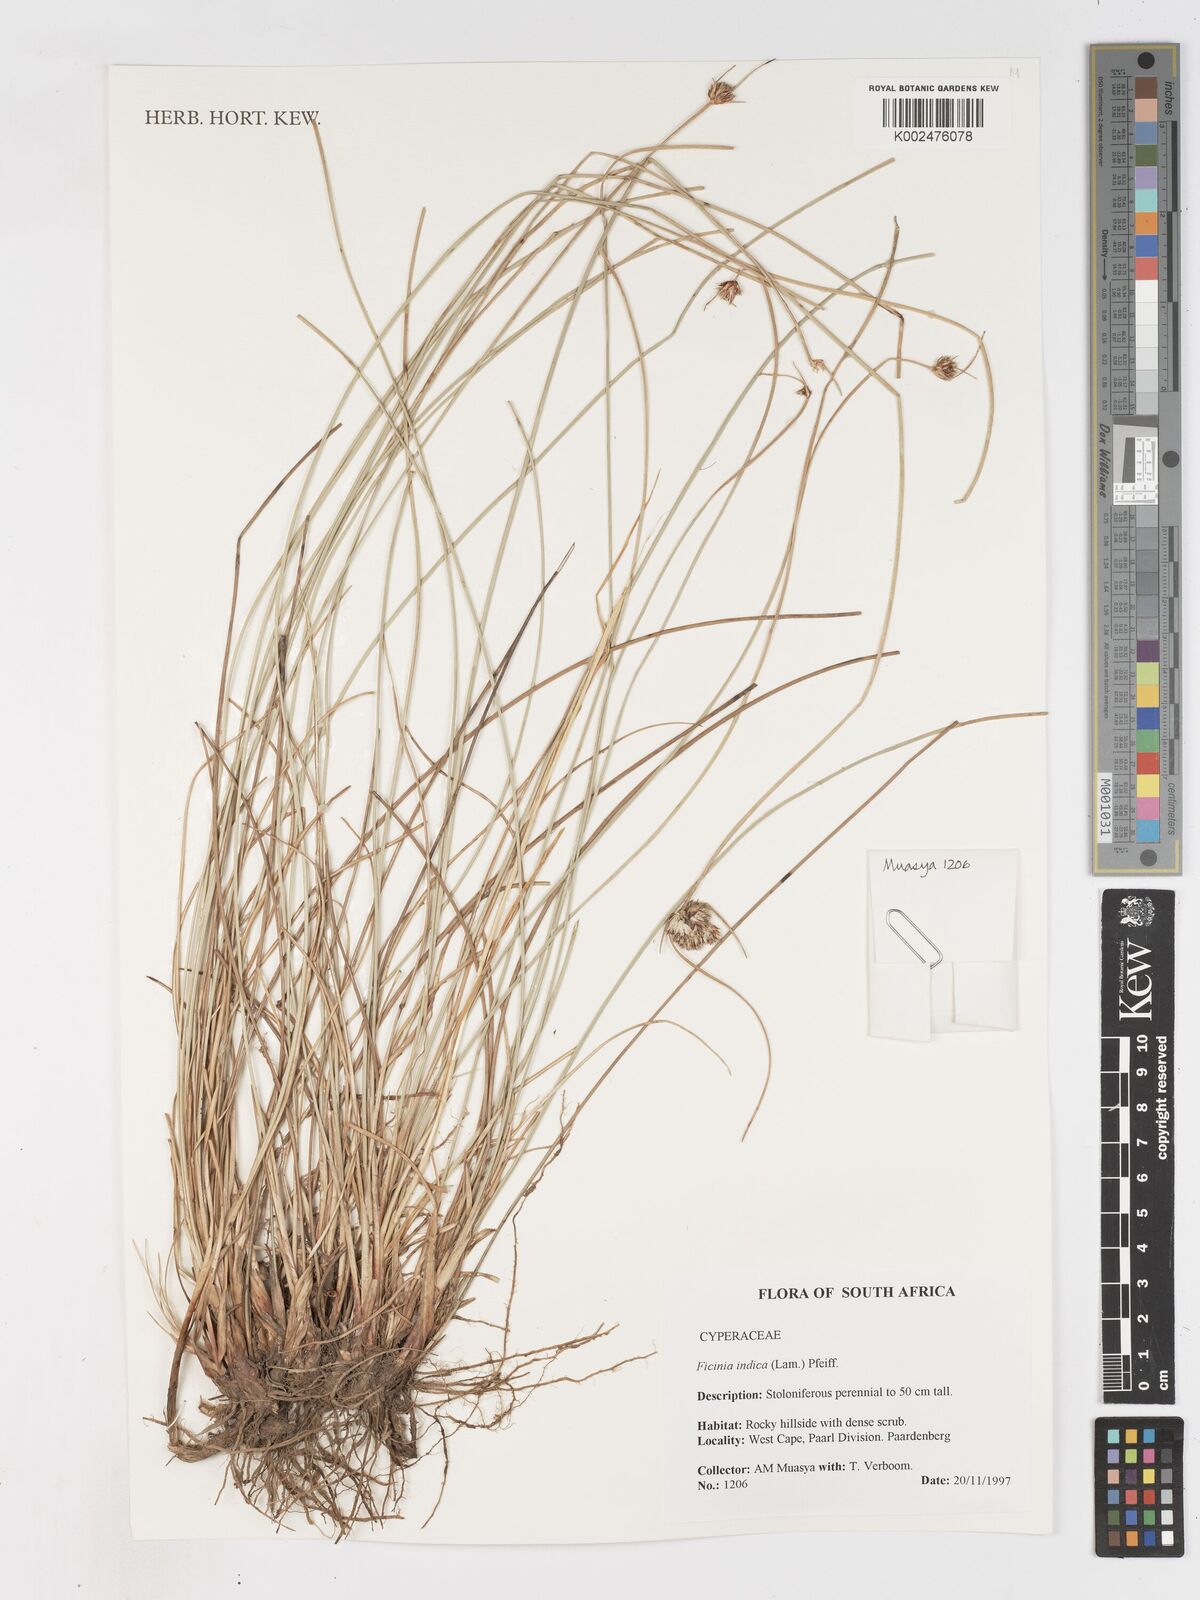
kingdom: Plantae
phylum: Tracheophyta
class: Liliopsida
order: Poales
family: Cyperaceae
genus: Ficinia
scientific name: Ficinia indica
